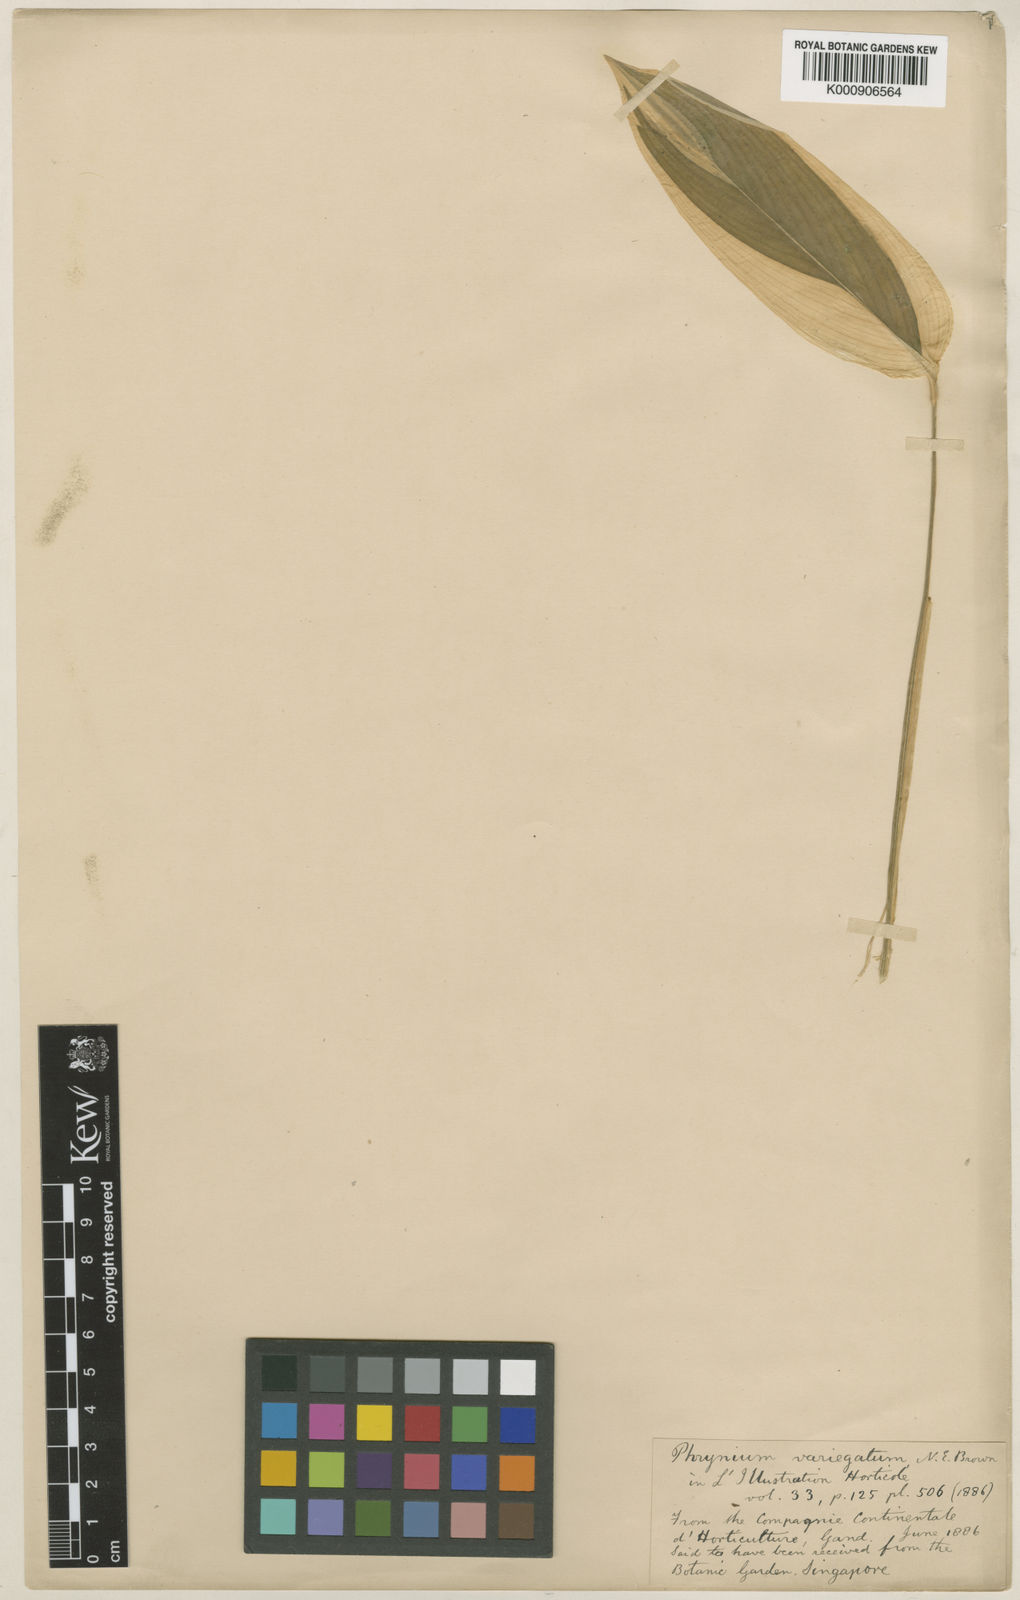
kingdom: Plantae
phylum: Tracheophyta
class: Liliopsida
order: Zingiberales
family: Marantaceae
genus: Maranta
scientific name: Maranta arundinacea
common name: Arrowroot
